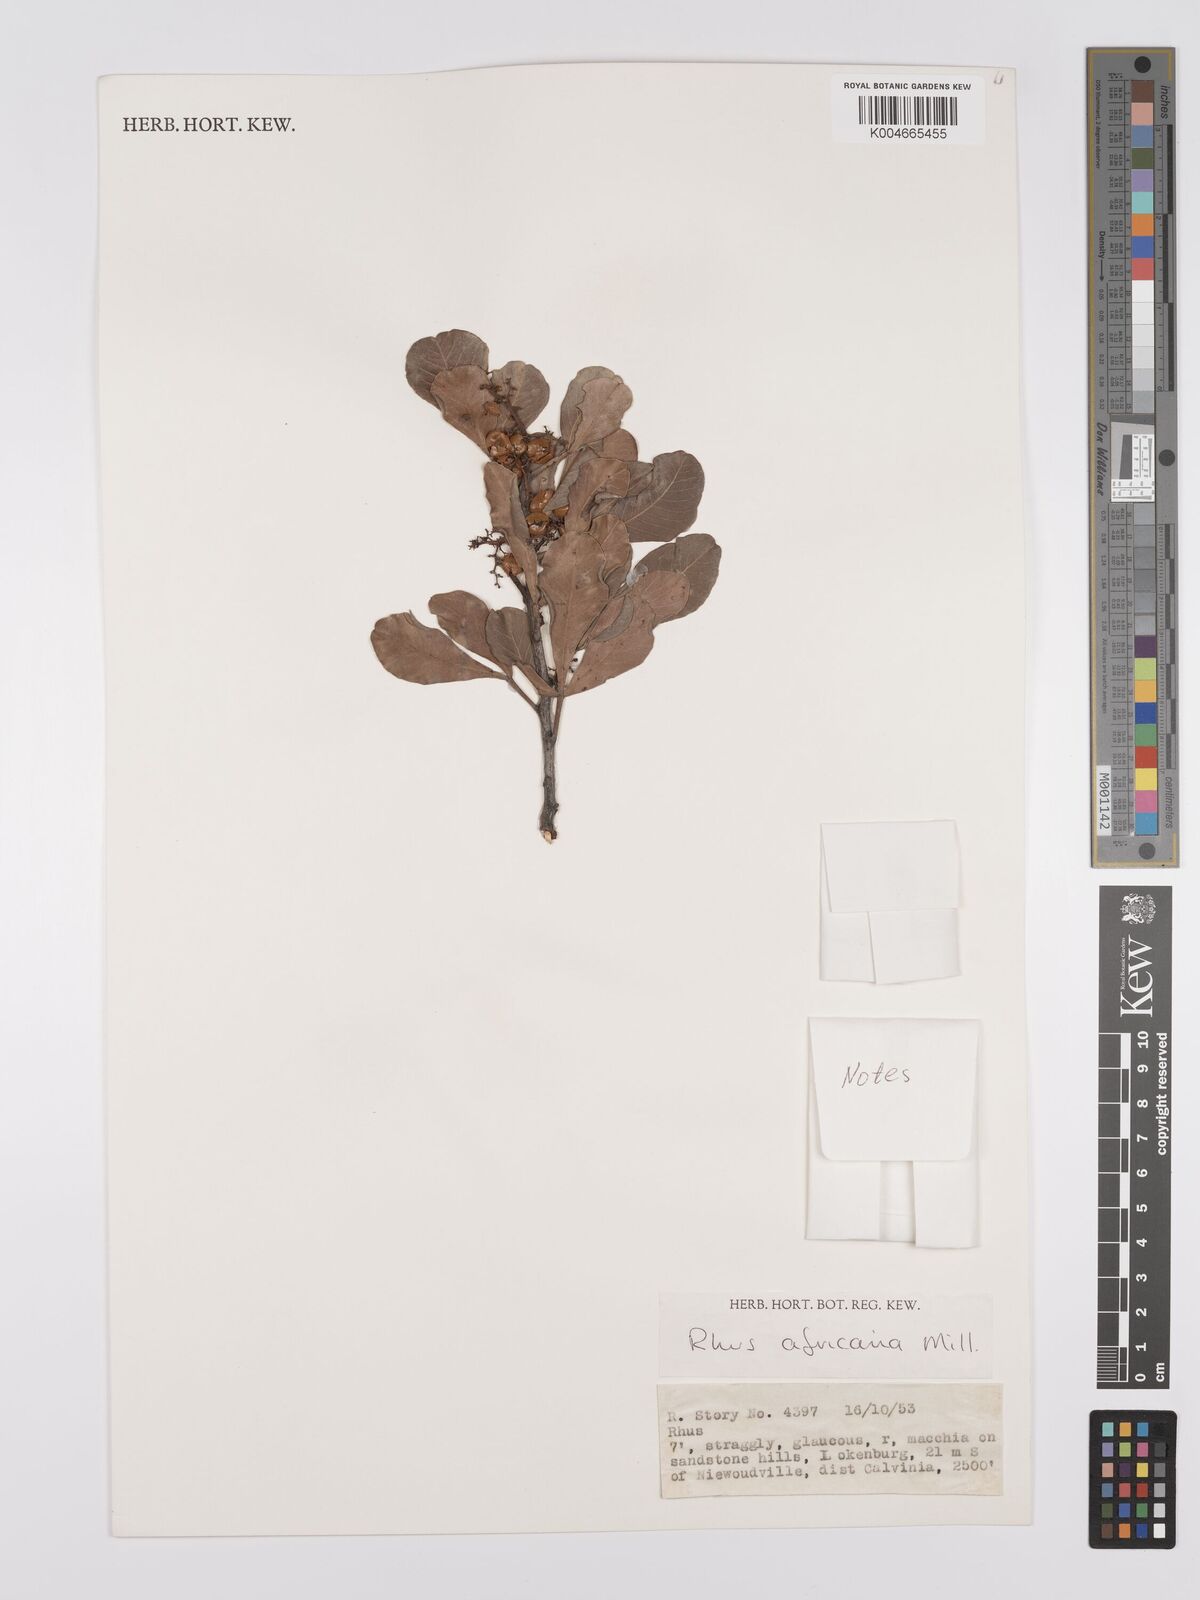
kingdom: Plantae
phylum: Tracheophyta
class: Magnoliopsida
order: Sapindales
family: Anacardiaceae
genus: Searsia
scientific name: Searsia lucida
